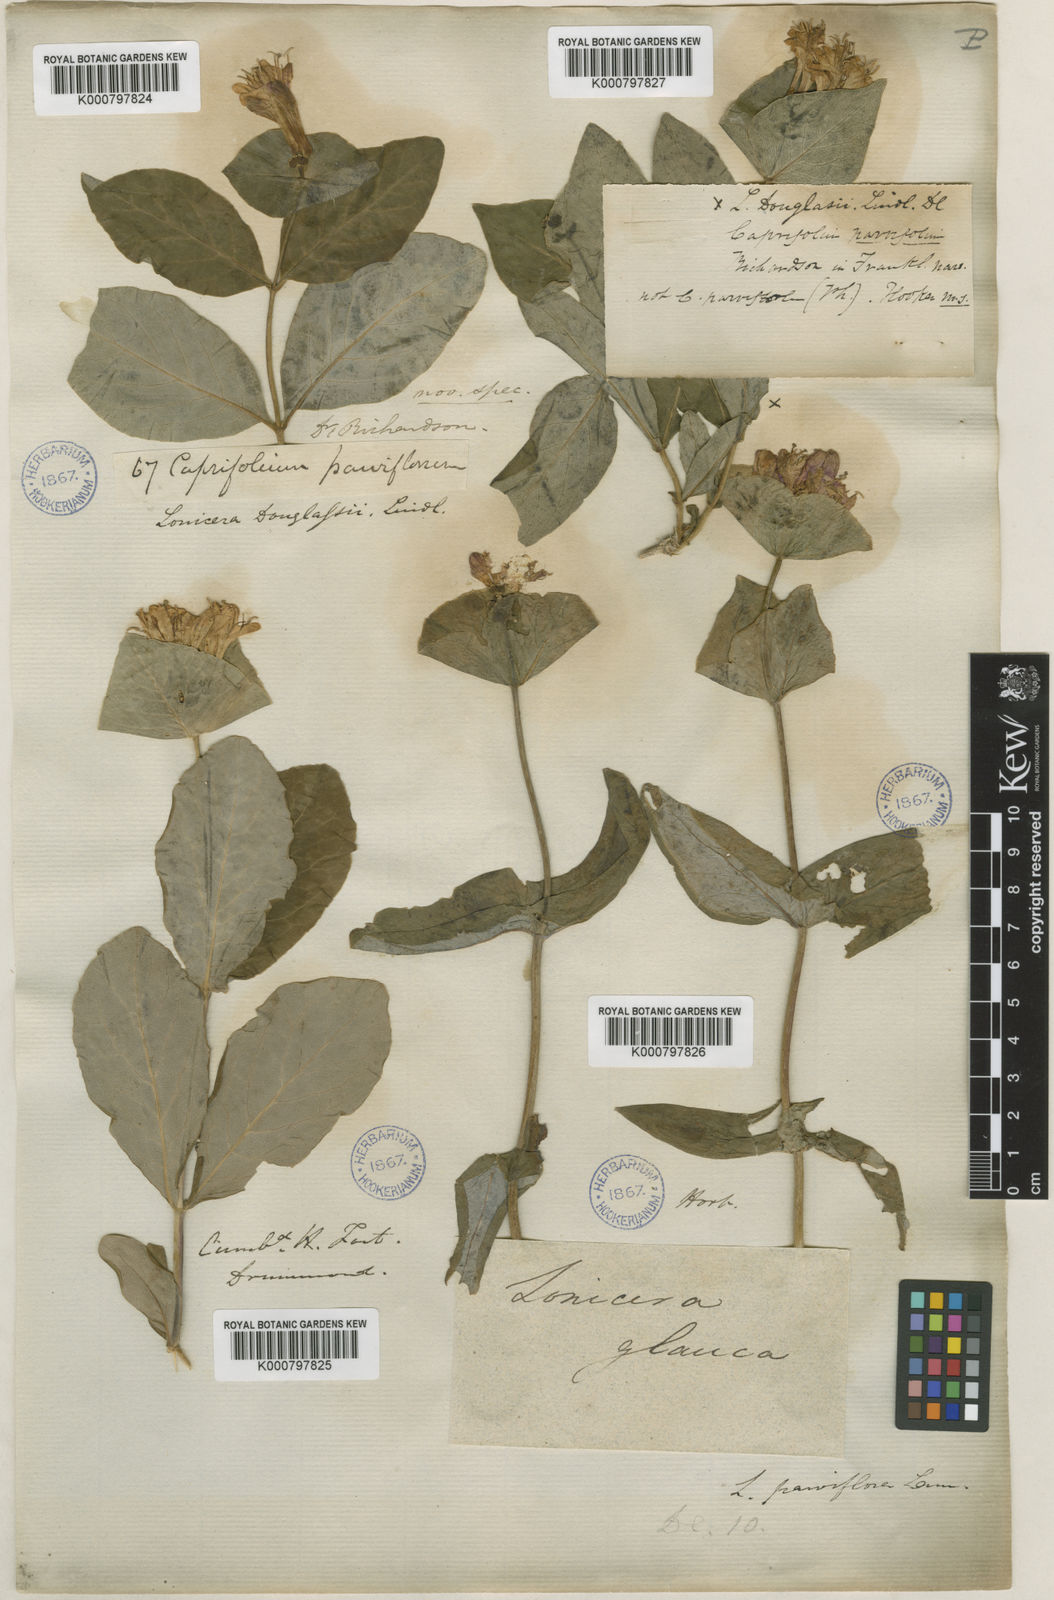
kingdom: Plantae
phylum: Tracheophyta
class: Magnoliopsida
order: Dipsacales
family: Caprifoliaceae
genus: Lonicera
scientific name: Lonicera dioica
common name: Limber honeysuckle
